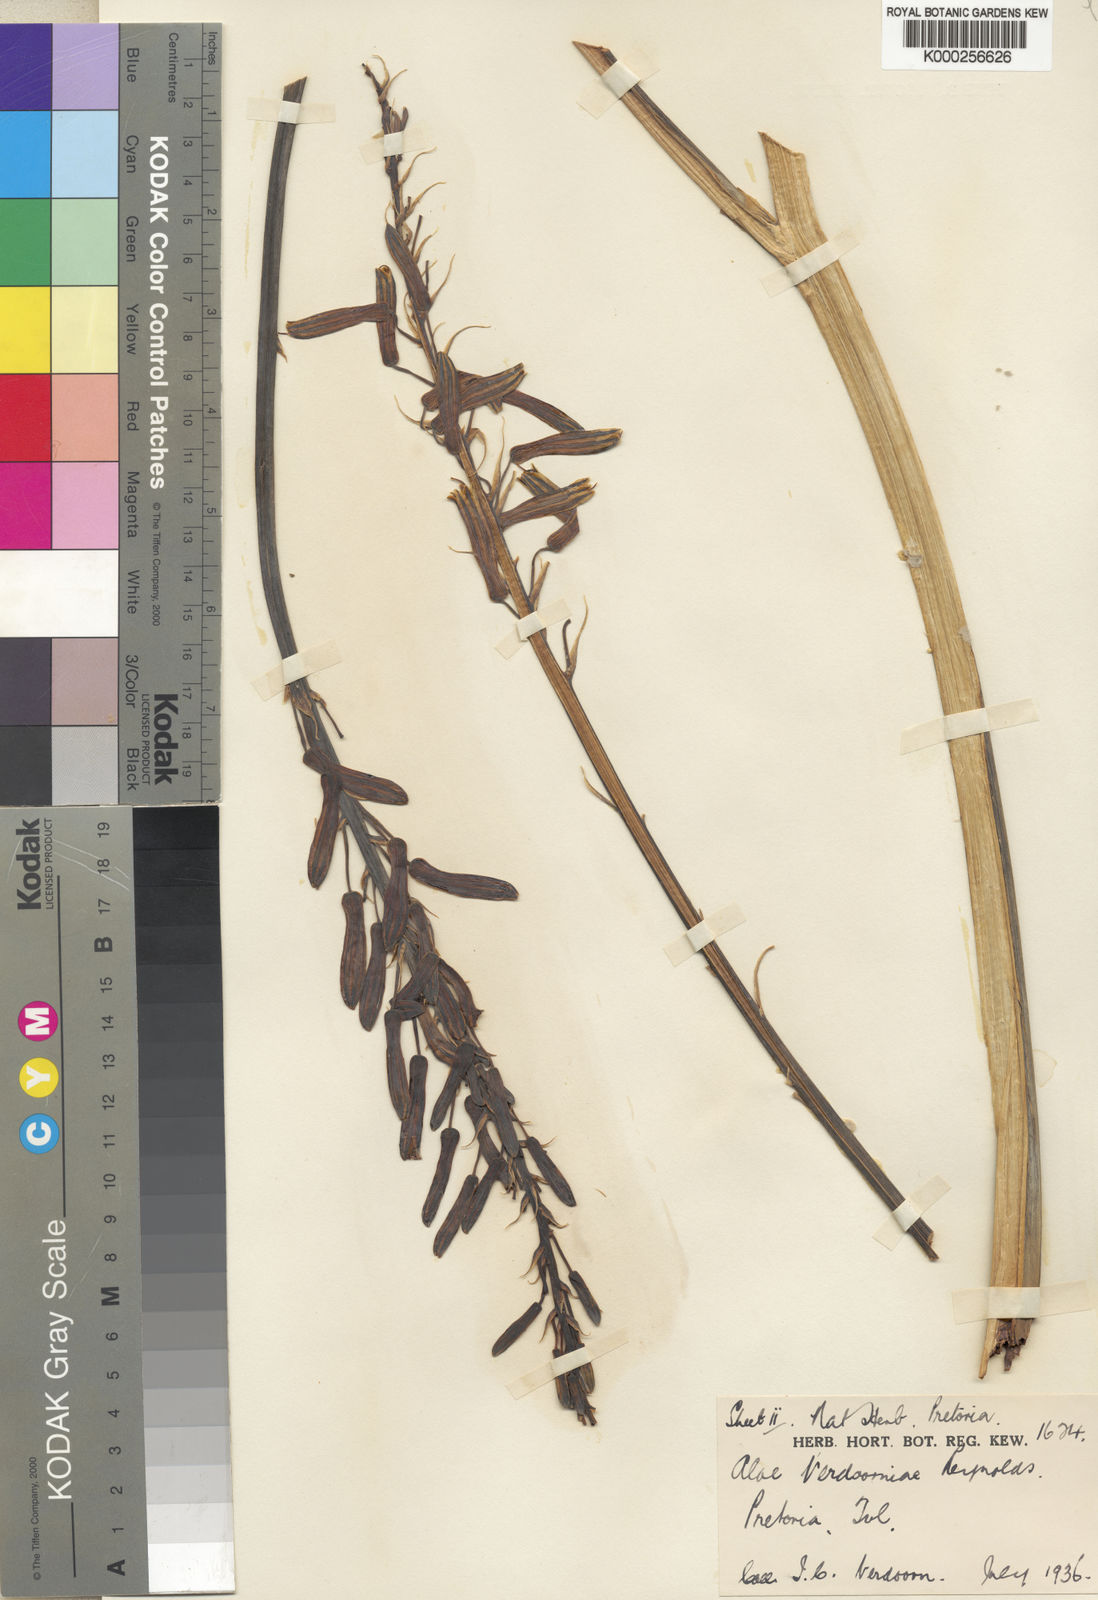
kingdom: Plantae
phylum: Tracheophyta
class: Liliopsida
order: Asparagales
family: Asphodelaceae
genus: Aloe
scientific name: Aloe davyana
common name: Spotted aloe
